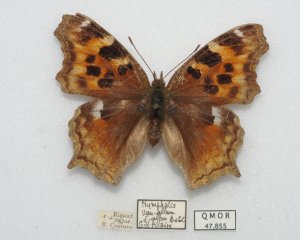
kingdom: Animalia
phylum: Arthropoda
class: Insecta
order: Lepidoptera
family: Nymphalidae
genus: Polygonia
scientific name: Polygonia vaualbum
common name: Compton Tortoiseshell
